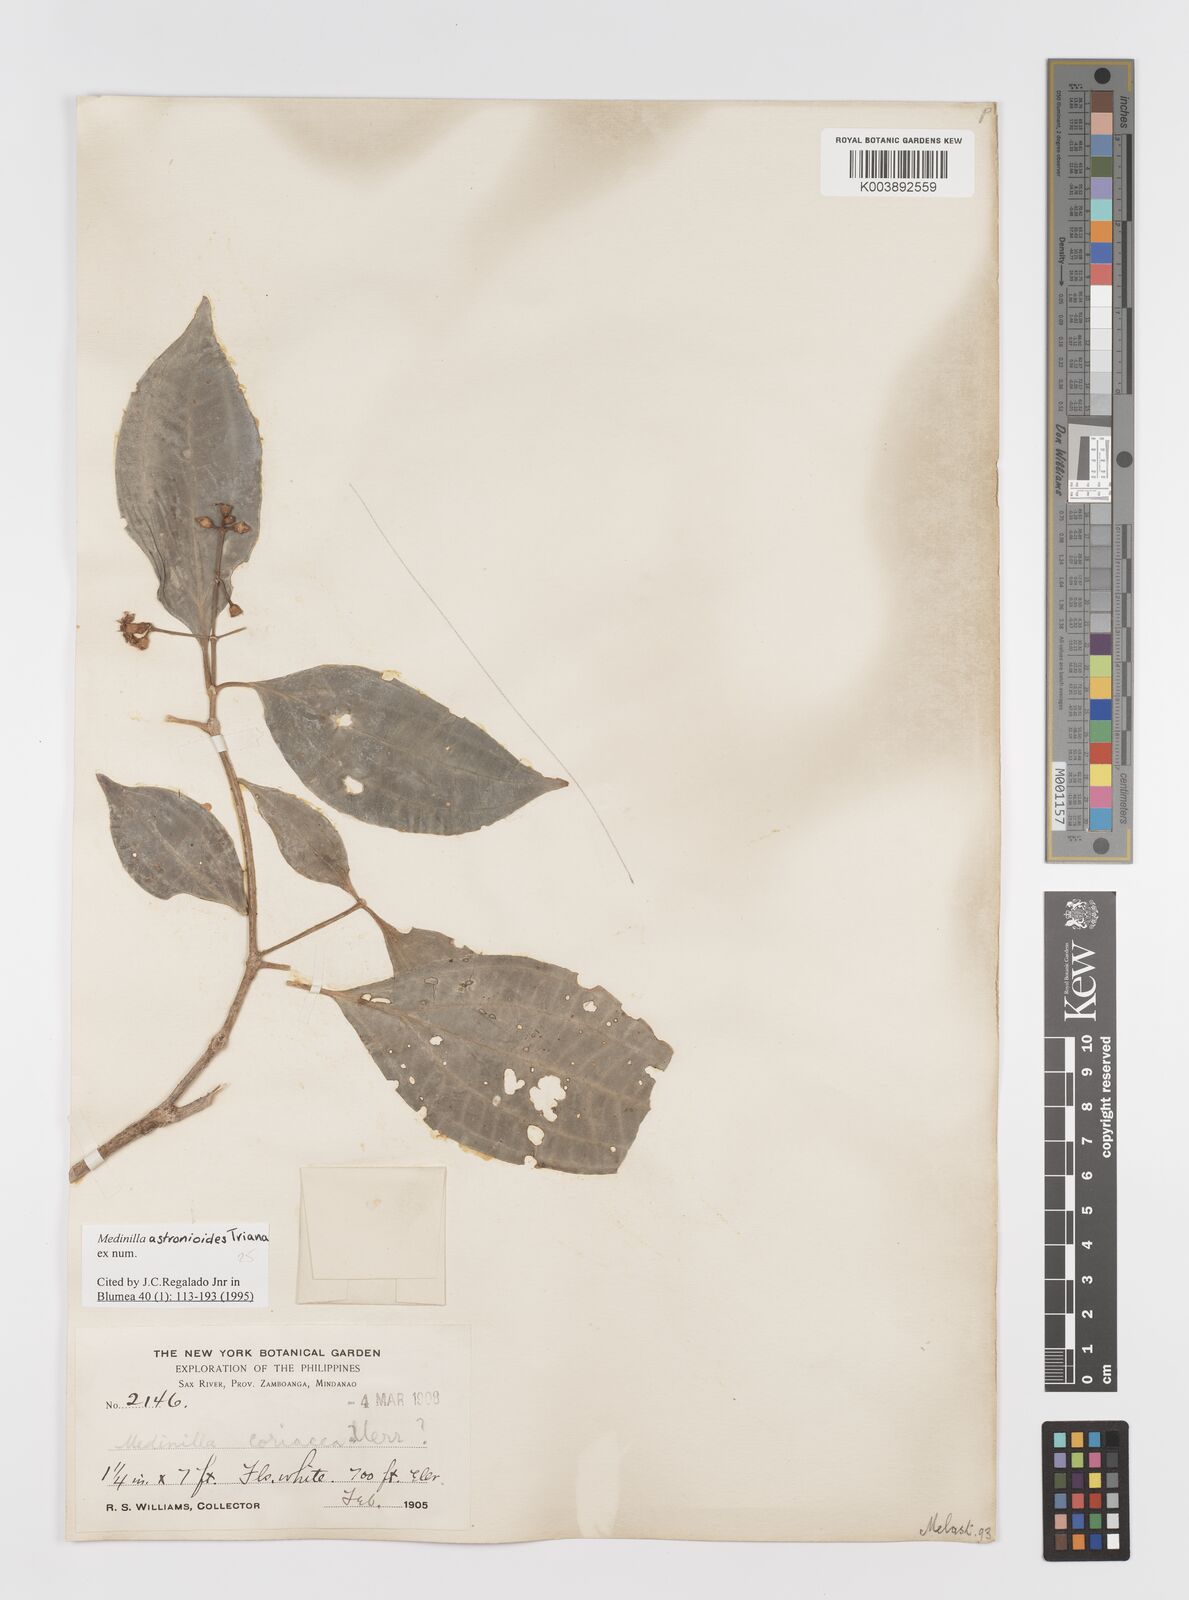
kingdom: Plantae
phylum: Tracheophyta
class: Magnoliopsida
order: Myrtales
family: Melastomataceae
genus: Medinilla
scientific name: Medinilla astronioides
